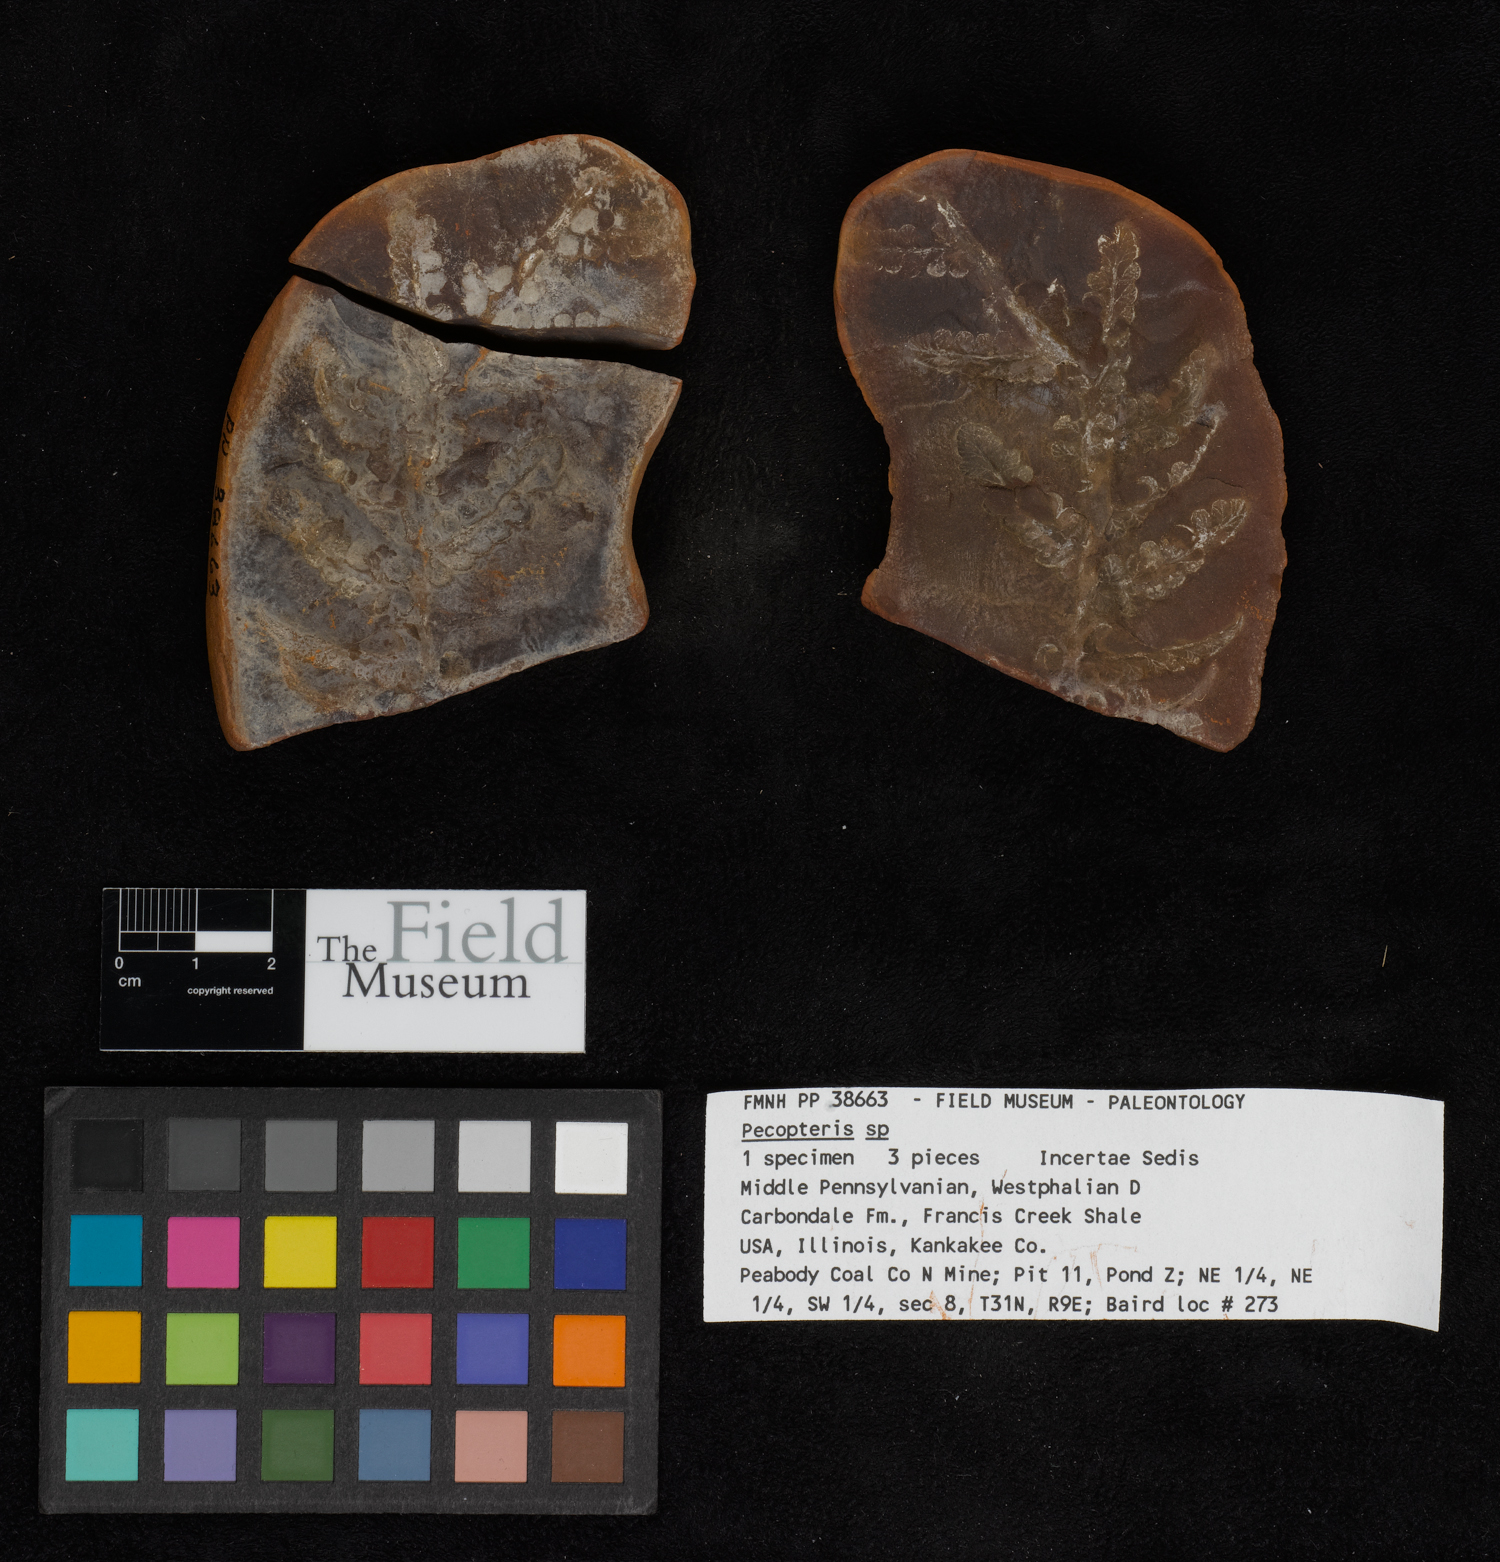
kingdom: Plantae
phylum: Tracheophyta
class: Polypodiopsida
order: Marattiales
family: Asterothecaceae
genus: Pecopteris
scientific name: Pecopteris
